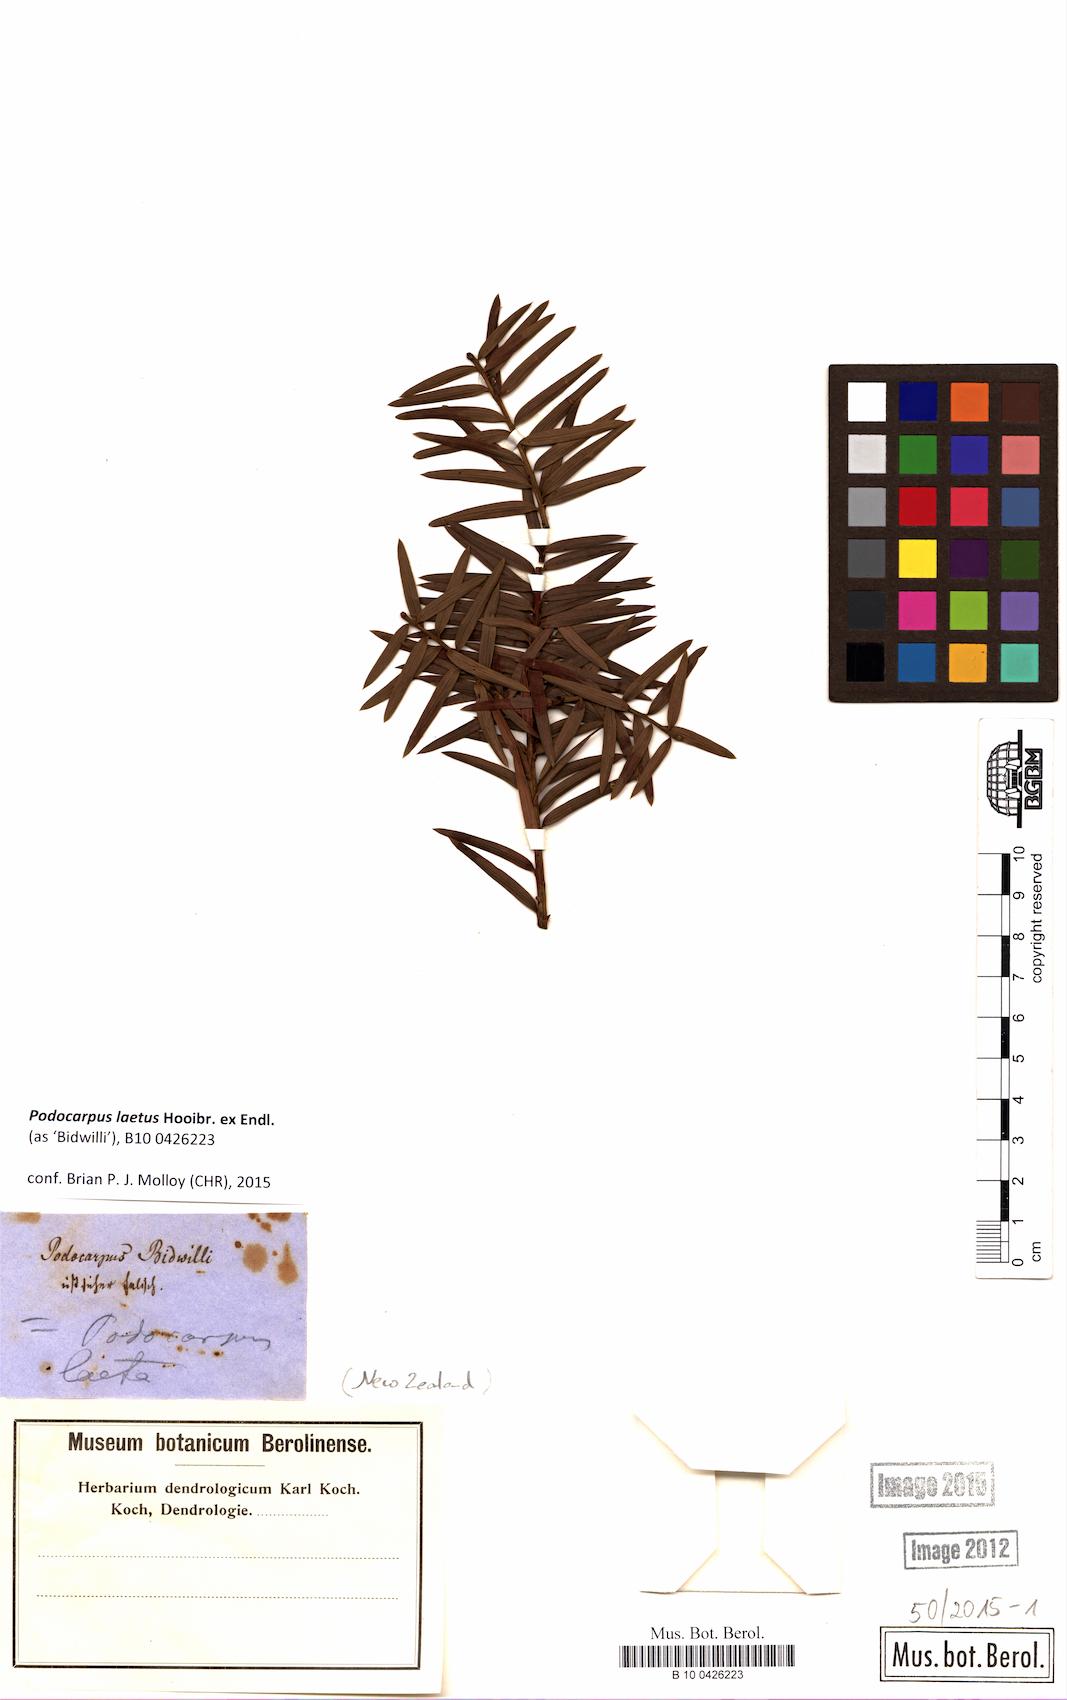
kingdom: Plantae
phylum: Tracheophyta
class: Pinopsida
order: Pinales
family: Podocarpaceae
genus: Podocarpus
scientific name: Podocarpus laetus
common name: Hall's totara
